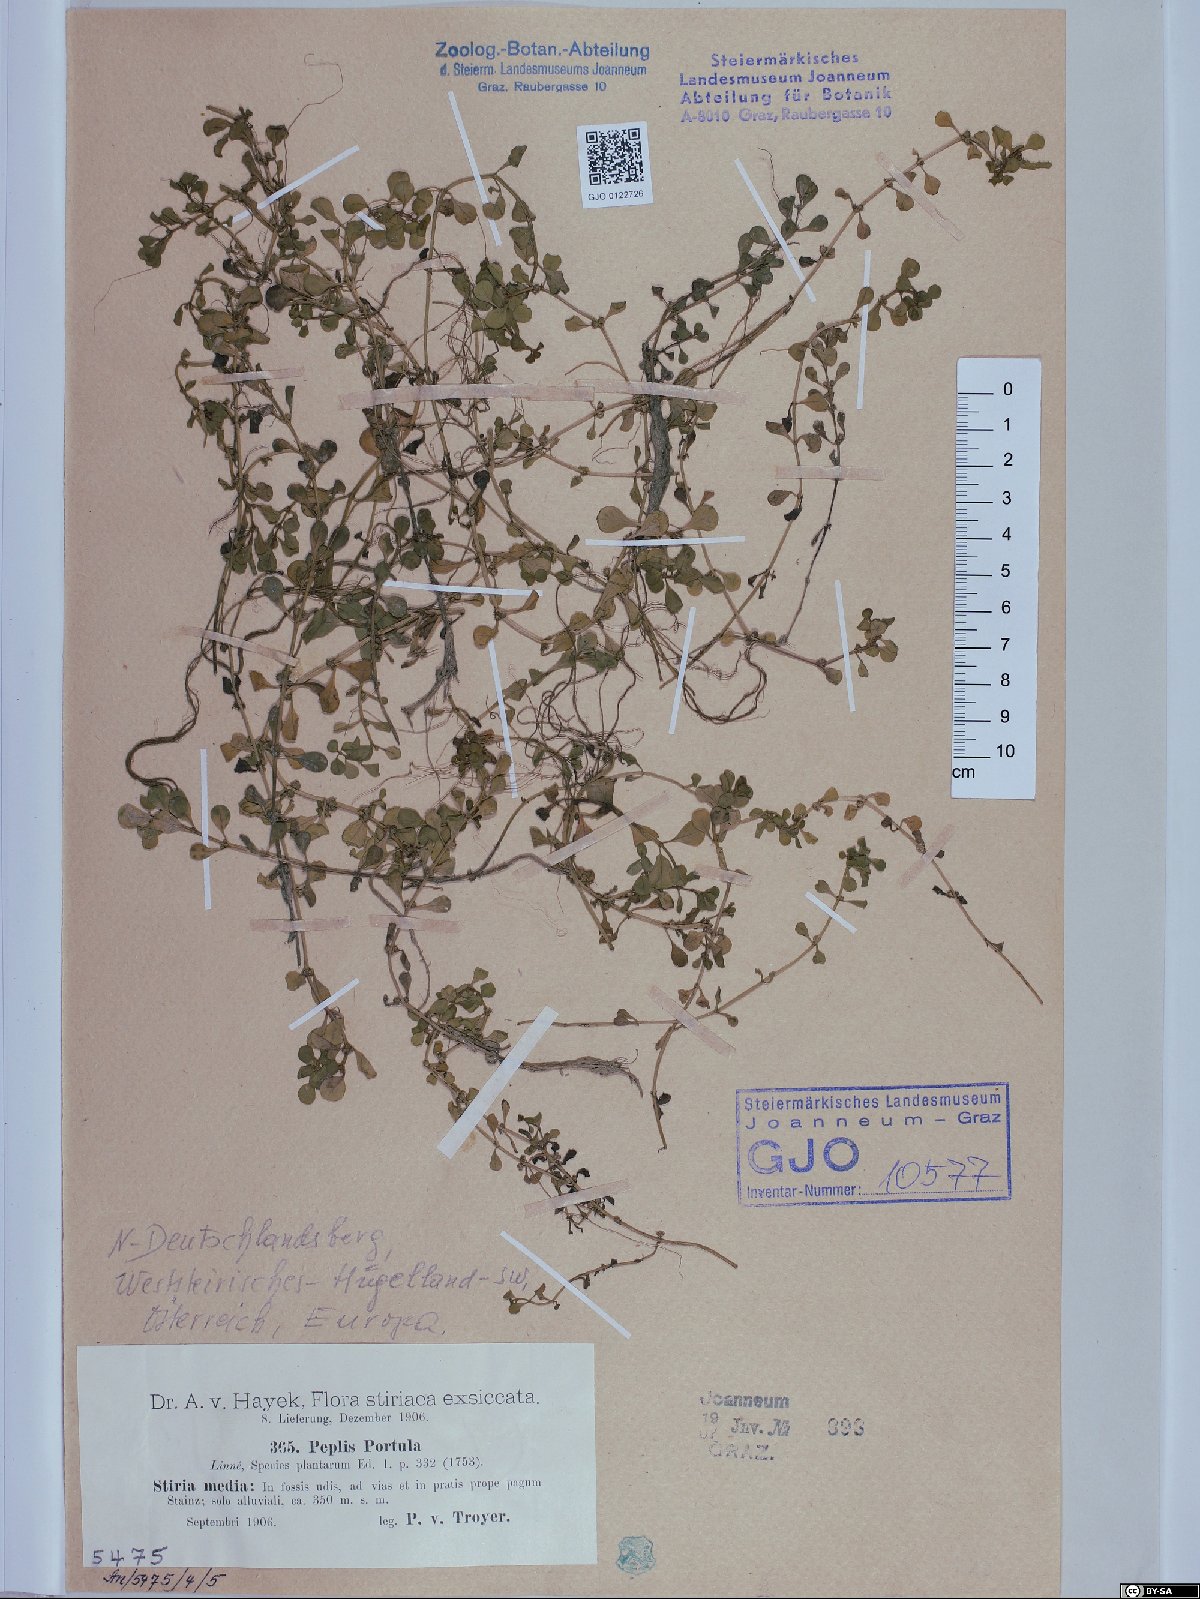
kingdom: Plantae
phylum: Tracheophyta
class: Magnoliopsida
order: Myrtales
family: Lythraceae
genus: Lythrum
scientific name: Lythrum portula
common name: Water purslane
